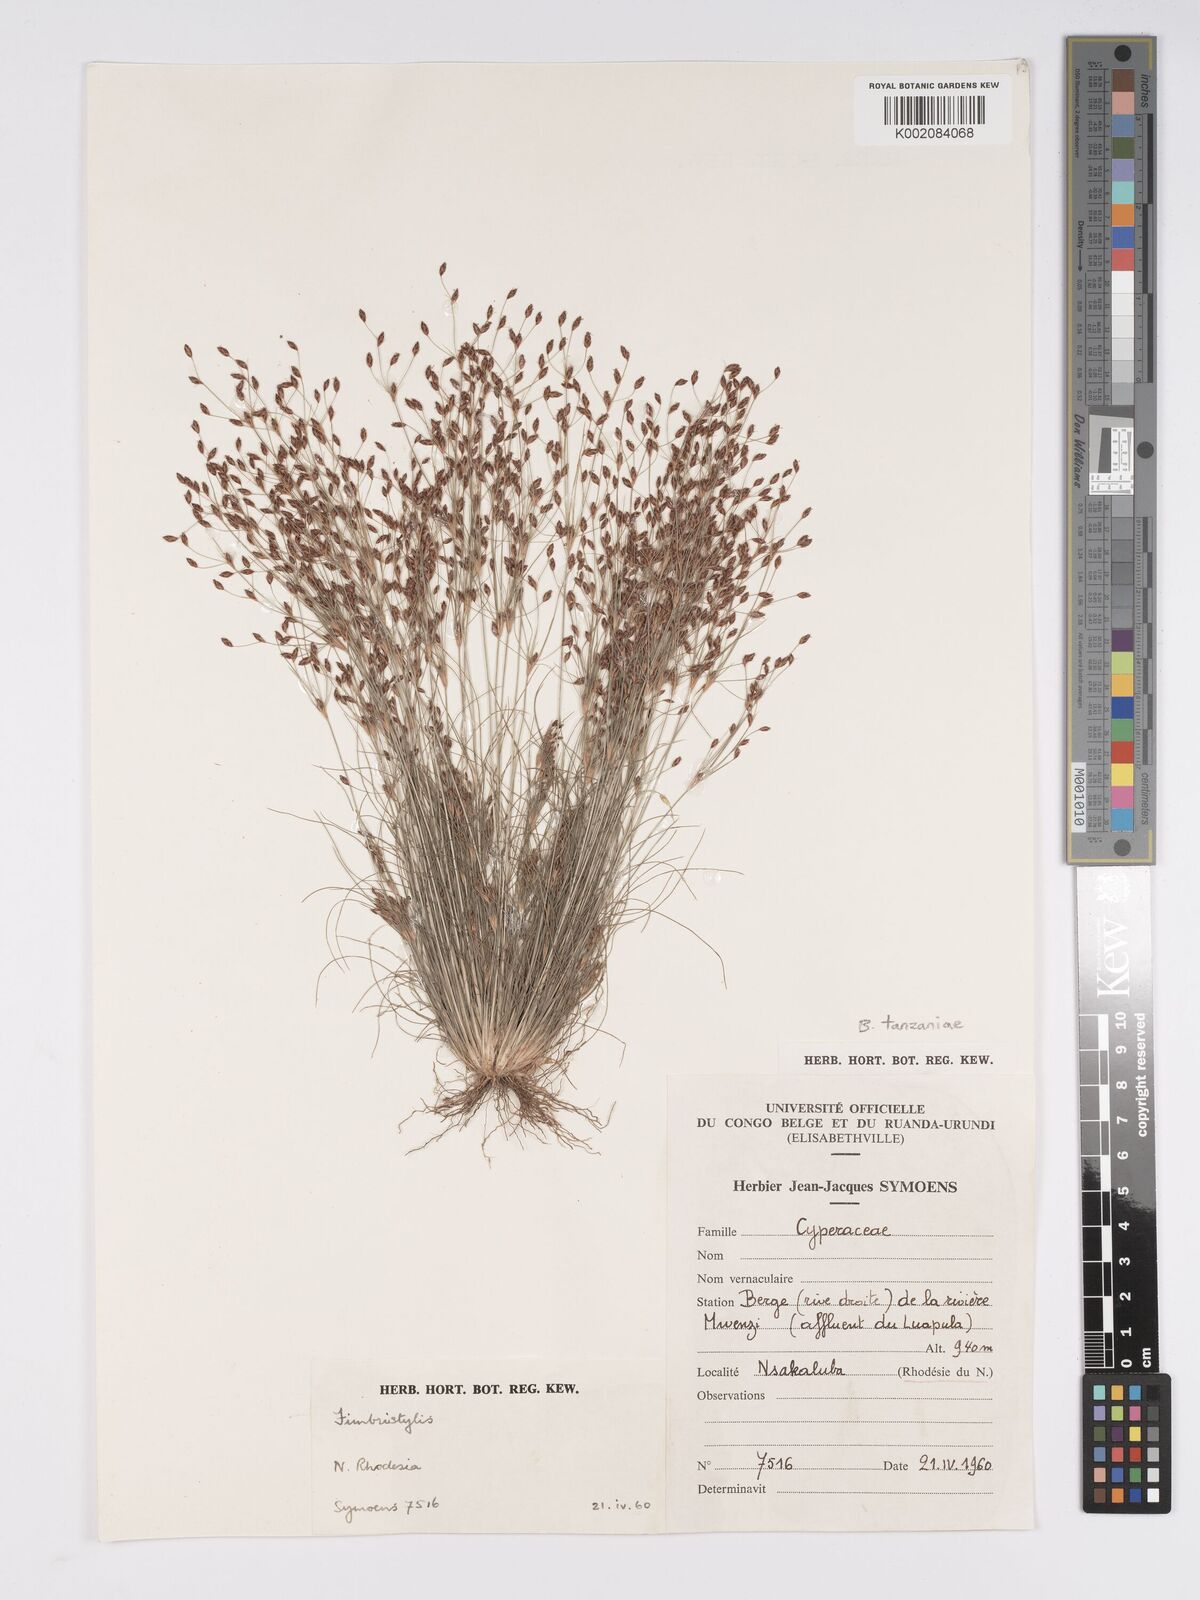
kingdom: Plantae
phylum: Tracheophyta
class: Liliopsida
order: Poales
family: Cyperaceae
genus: Bulbostylis
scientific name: Bulbostylis tanzaniae
